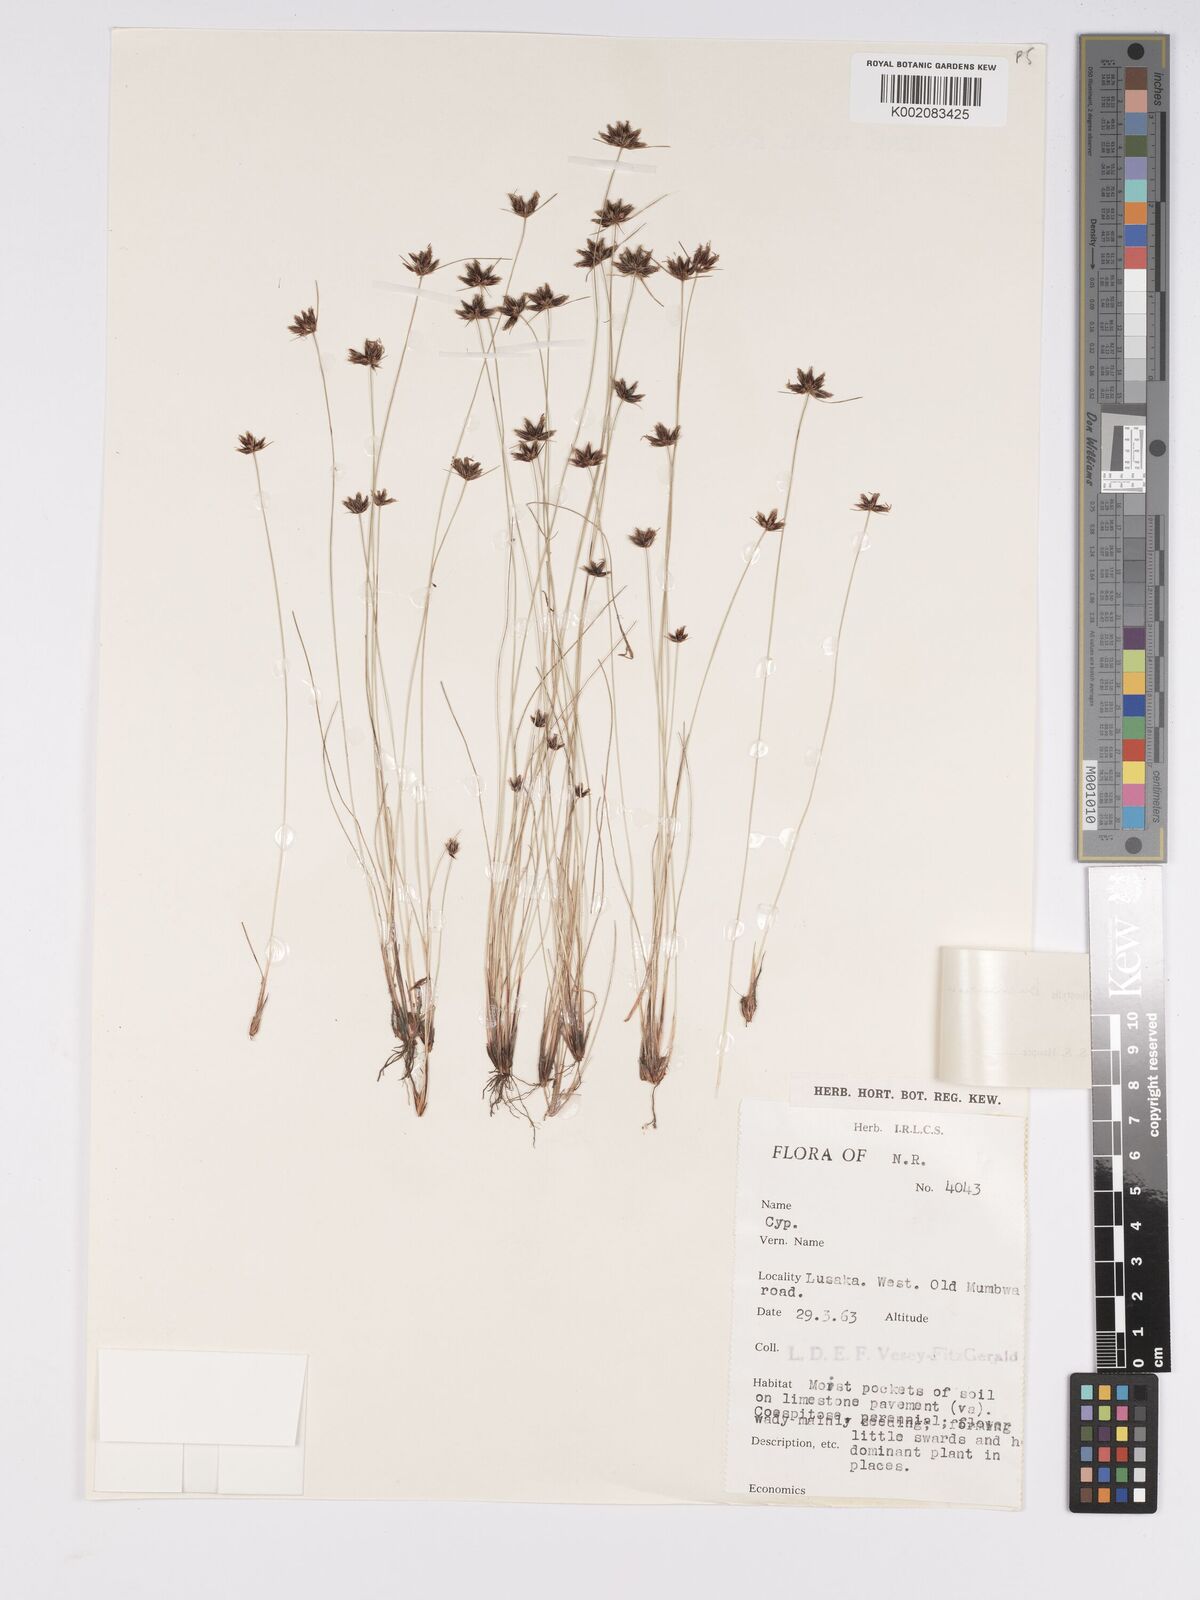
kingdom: Plantae
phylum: Tracheophyta
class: Liliopsida
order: Poales
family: Cyperaceae
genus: Bulbostylis
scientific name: Bulbostylis buchananii
